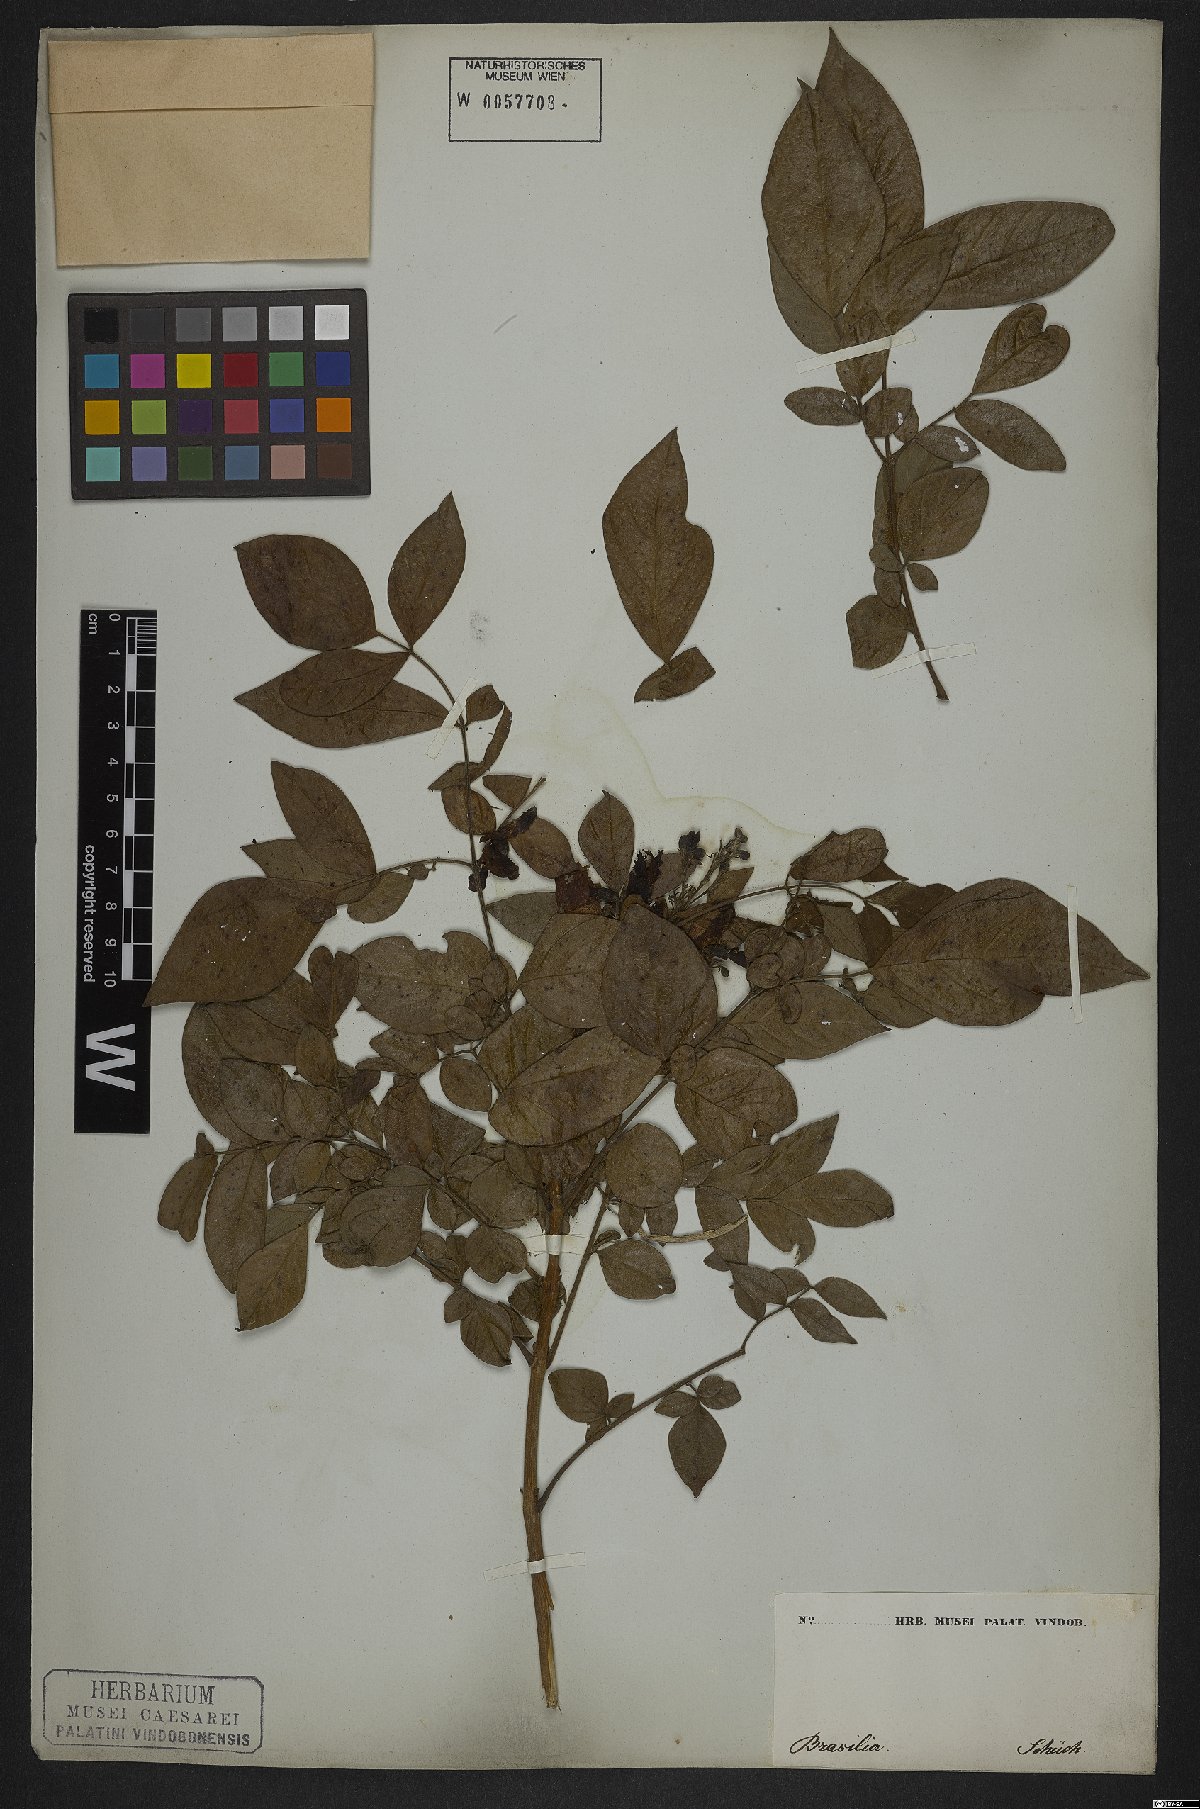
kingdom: Plantae
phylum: Tracheophyta
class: Magnoliopsida
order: Lamiales
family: Bignoniaceae
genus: Jacaranda
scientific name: Jacaranda jasminoides
